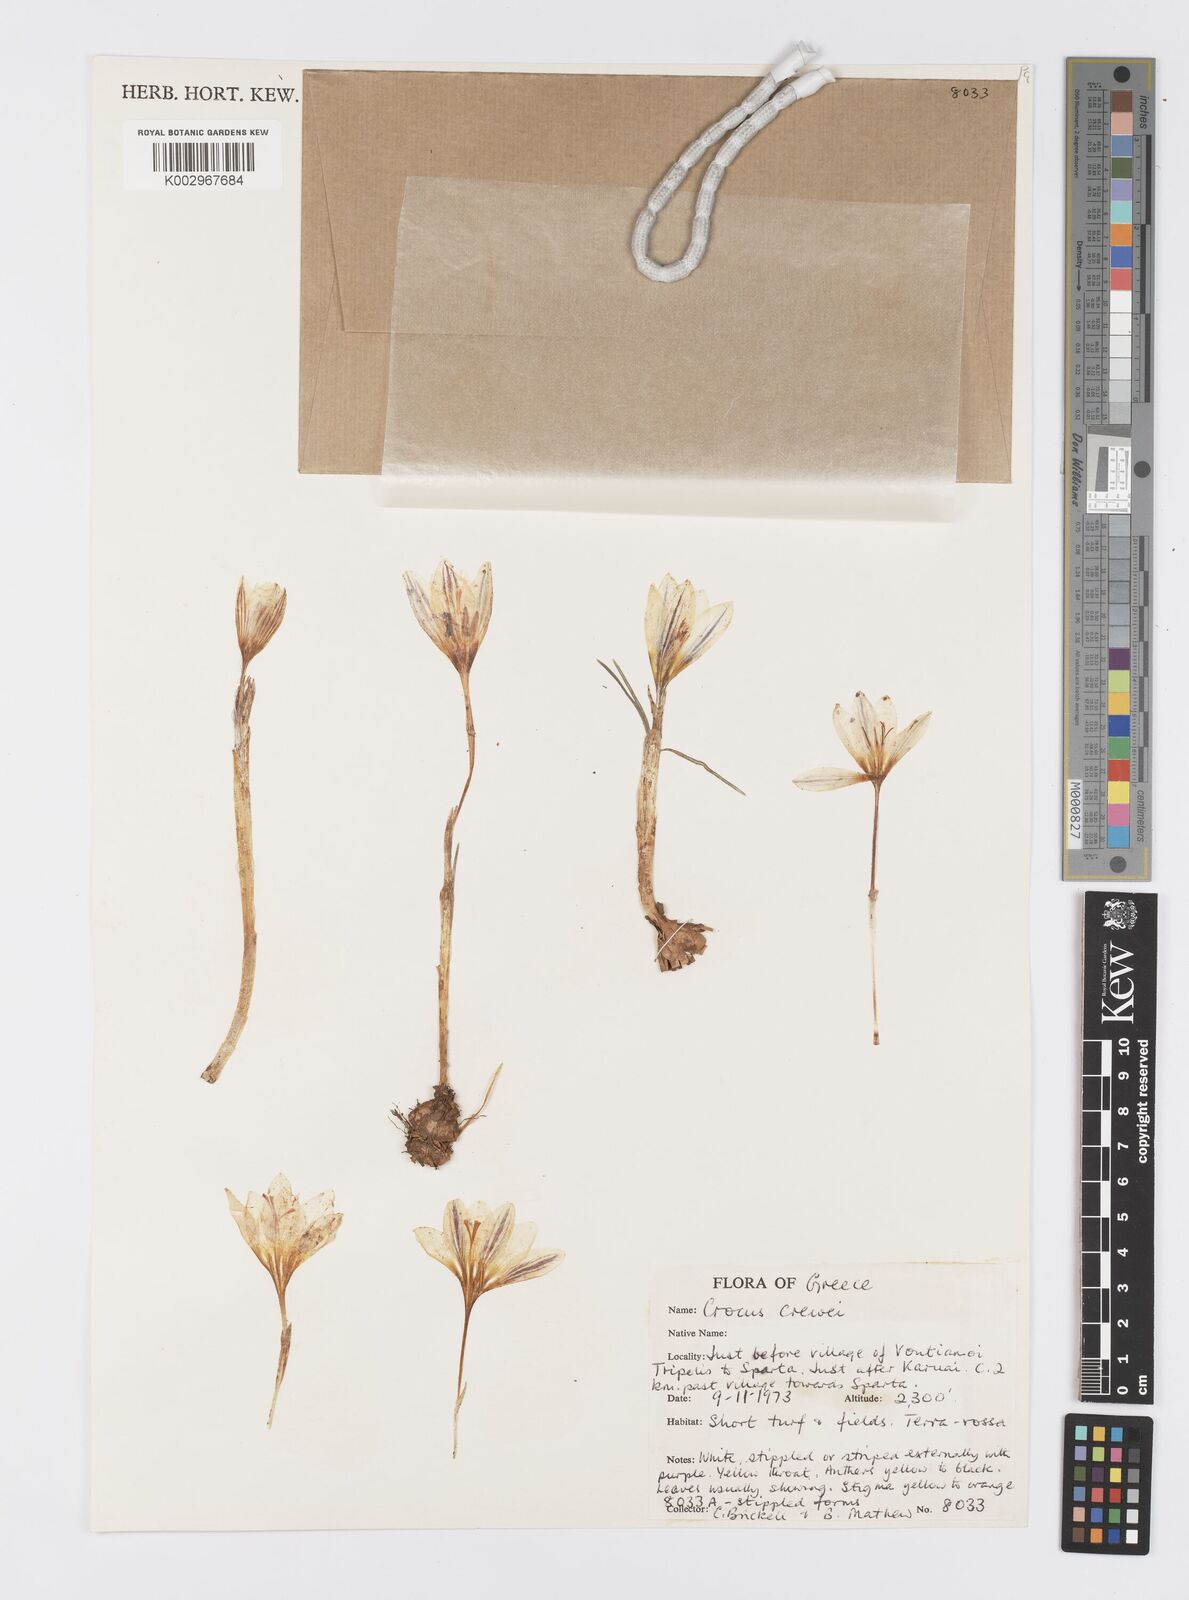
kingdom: Plantae
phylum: Tracheophyta
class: Liliopsida
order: Asparagales
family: Iridaceae
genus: Crocus
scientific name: Crocus melantherus
